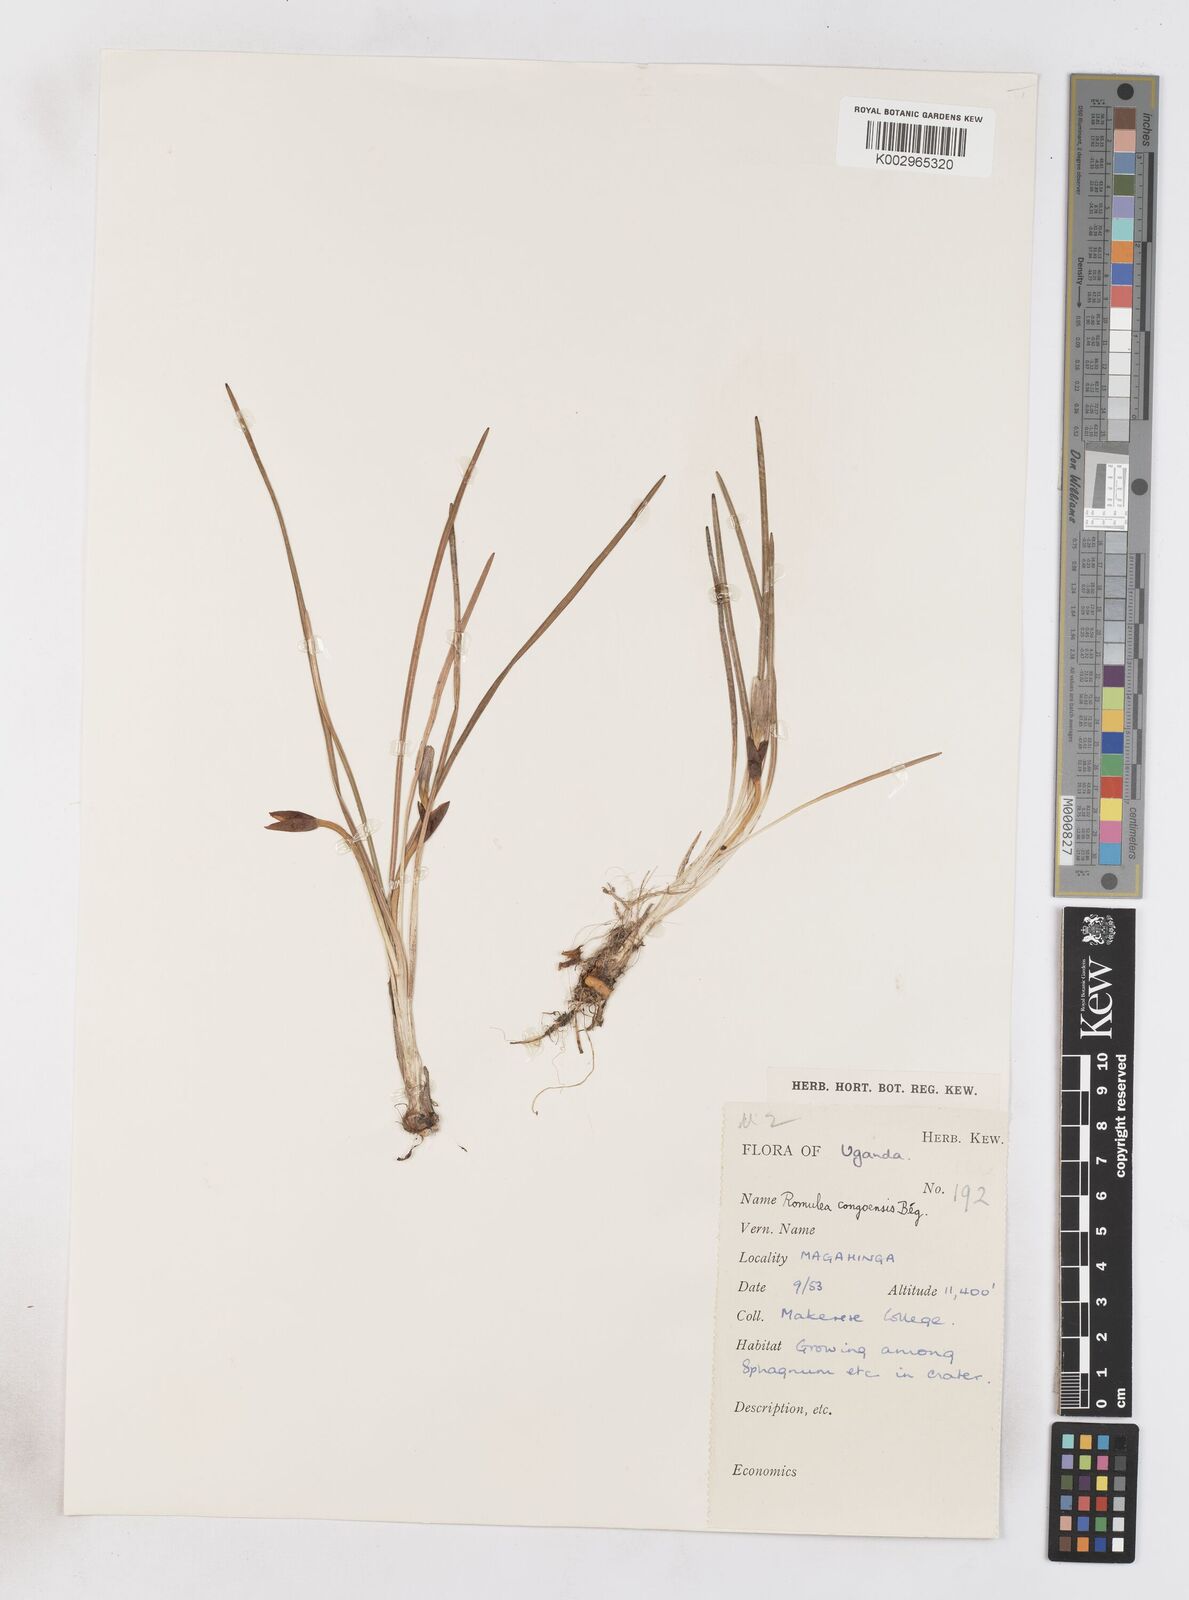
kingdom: Plantae
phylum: Tracheophyta
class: Liliopsida
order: Asparagales
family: Iridaceae
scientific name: Iridaceae
